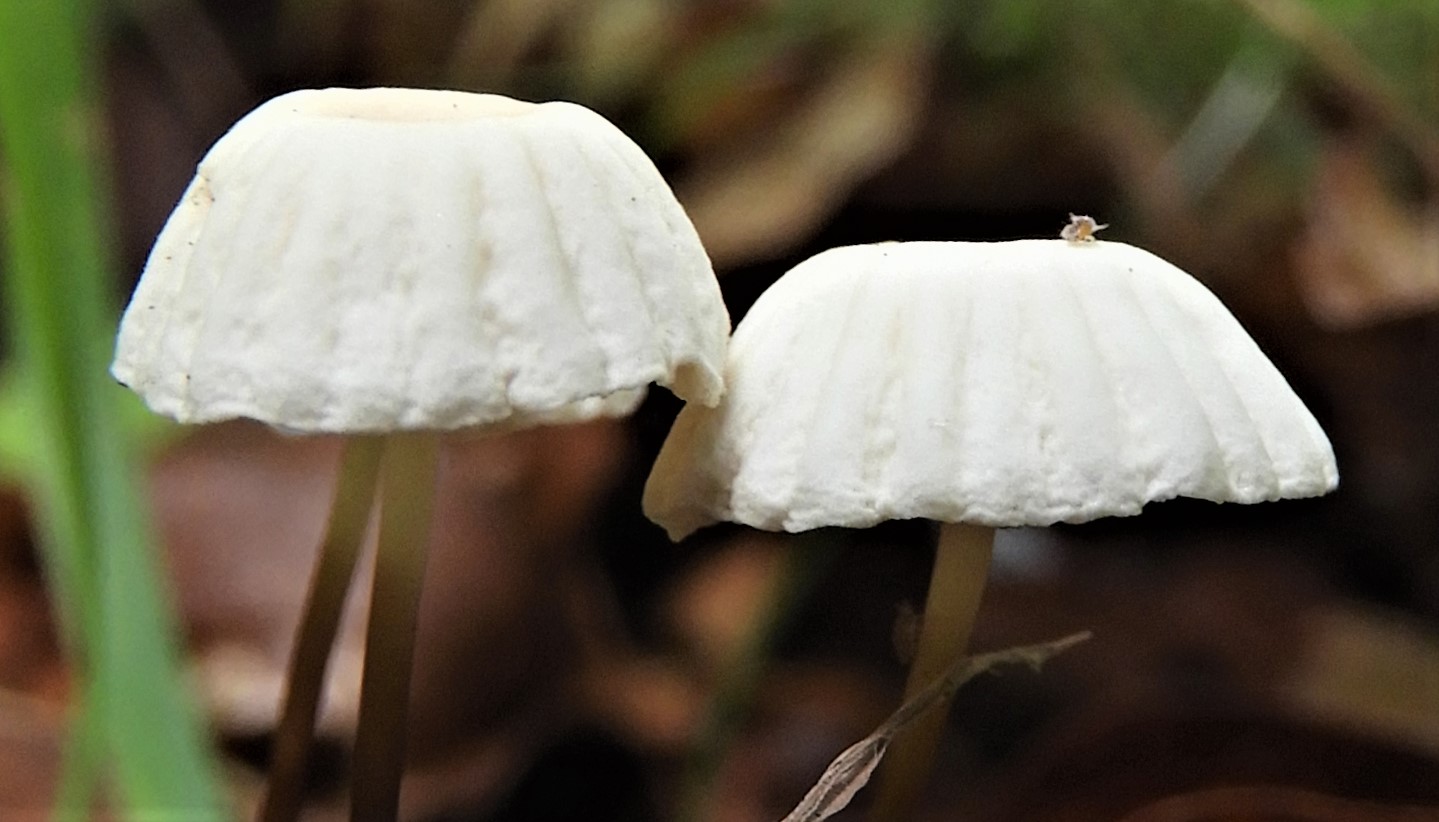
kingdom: Fungi
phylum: Basidiomycota
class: Agaricomycetes
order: Agaricales
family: Marasmiaceae
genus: Marasmius
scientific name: Marasmius rotula
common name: hjul-bruskhat
